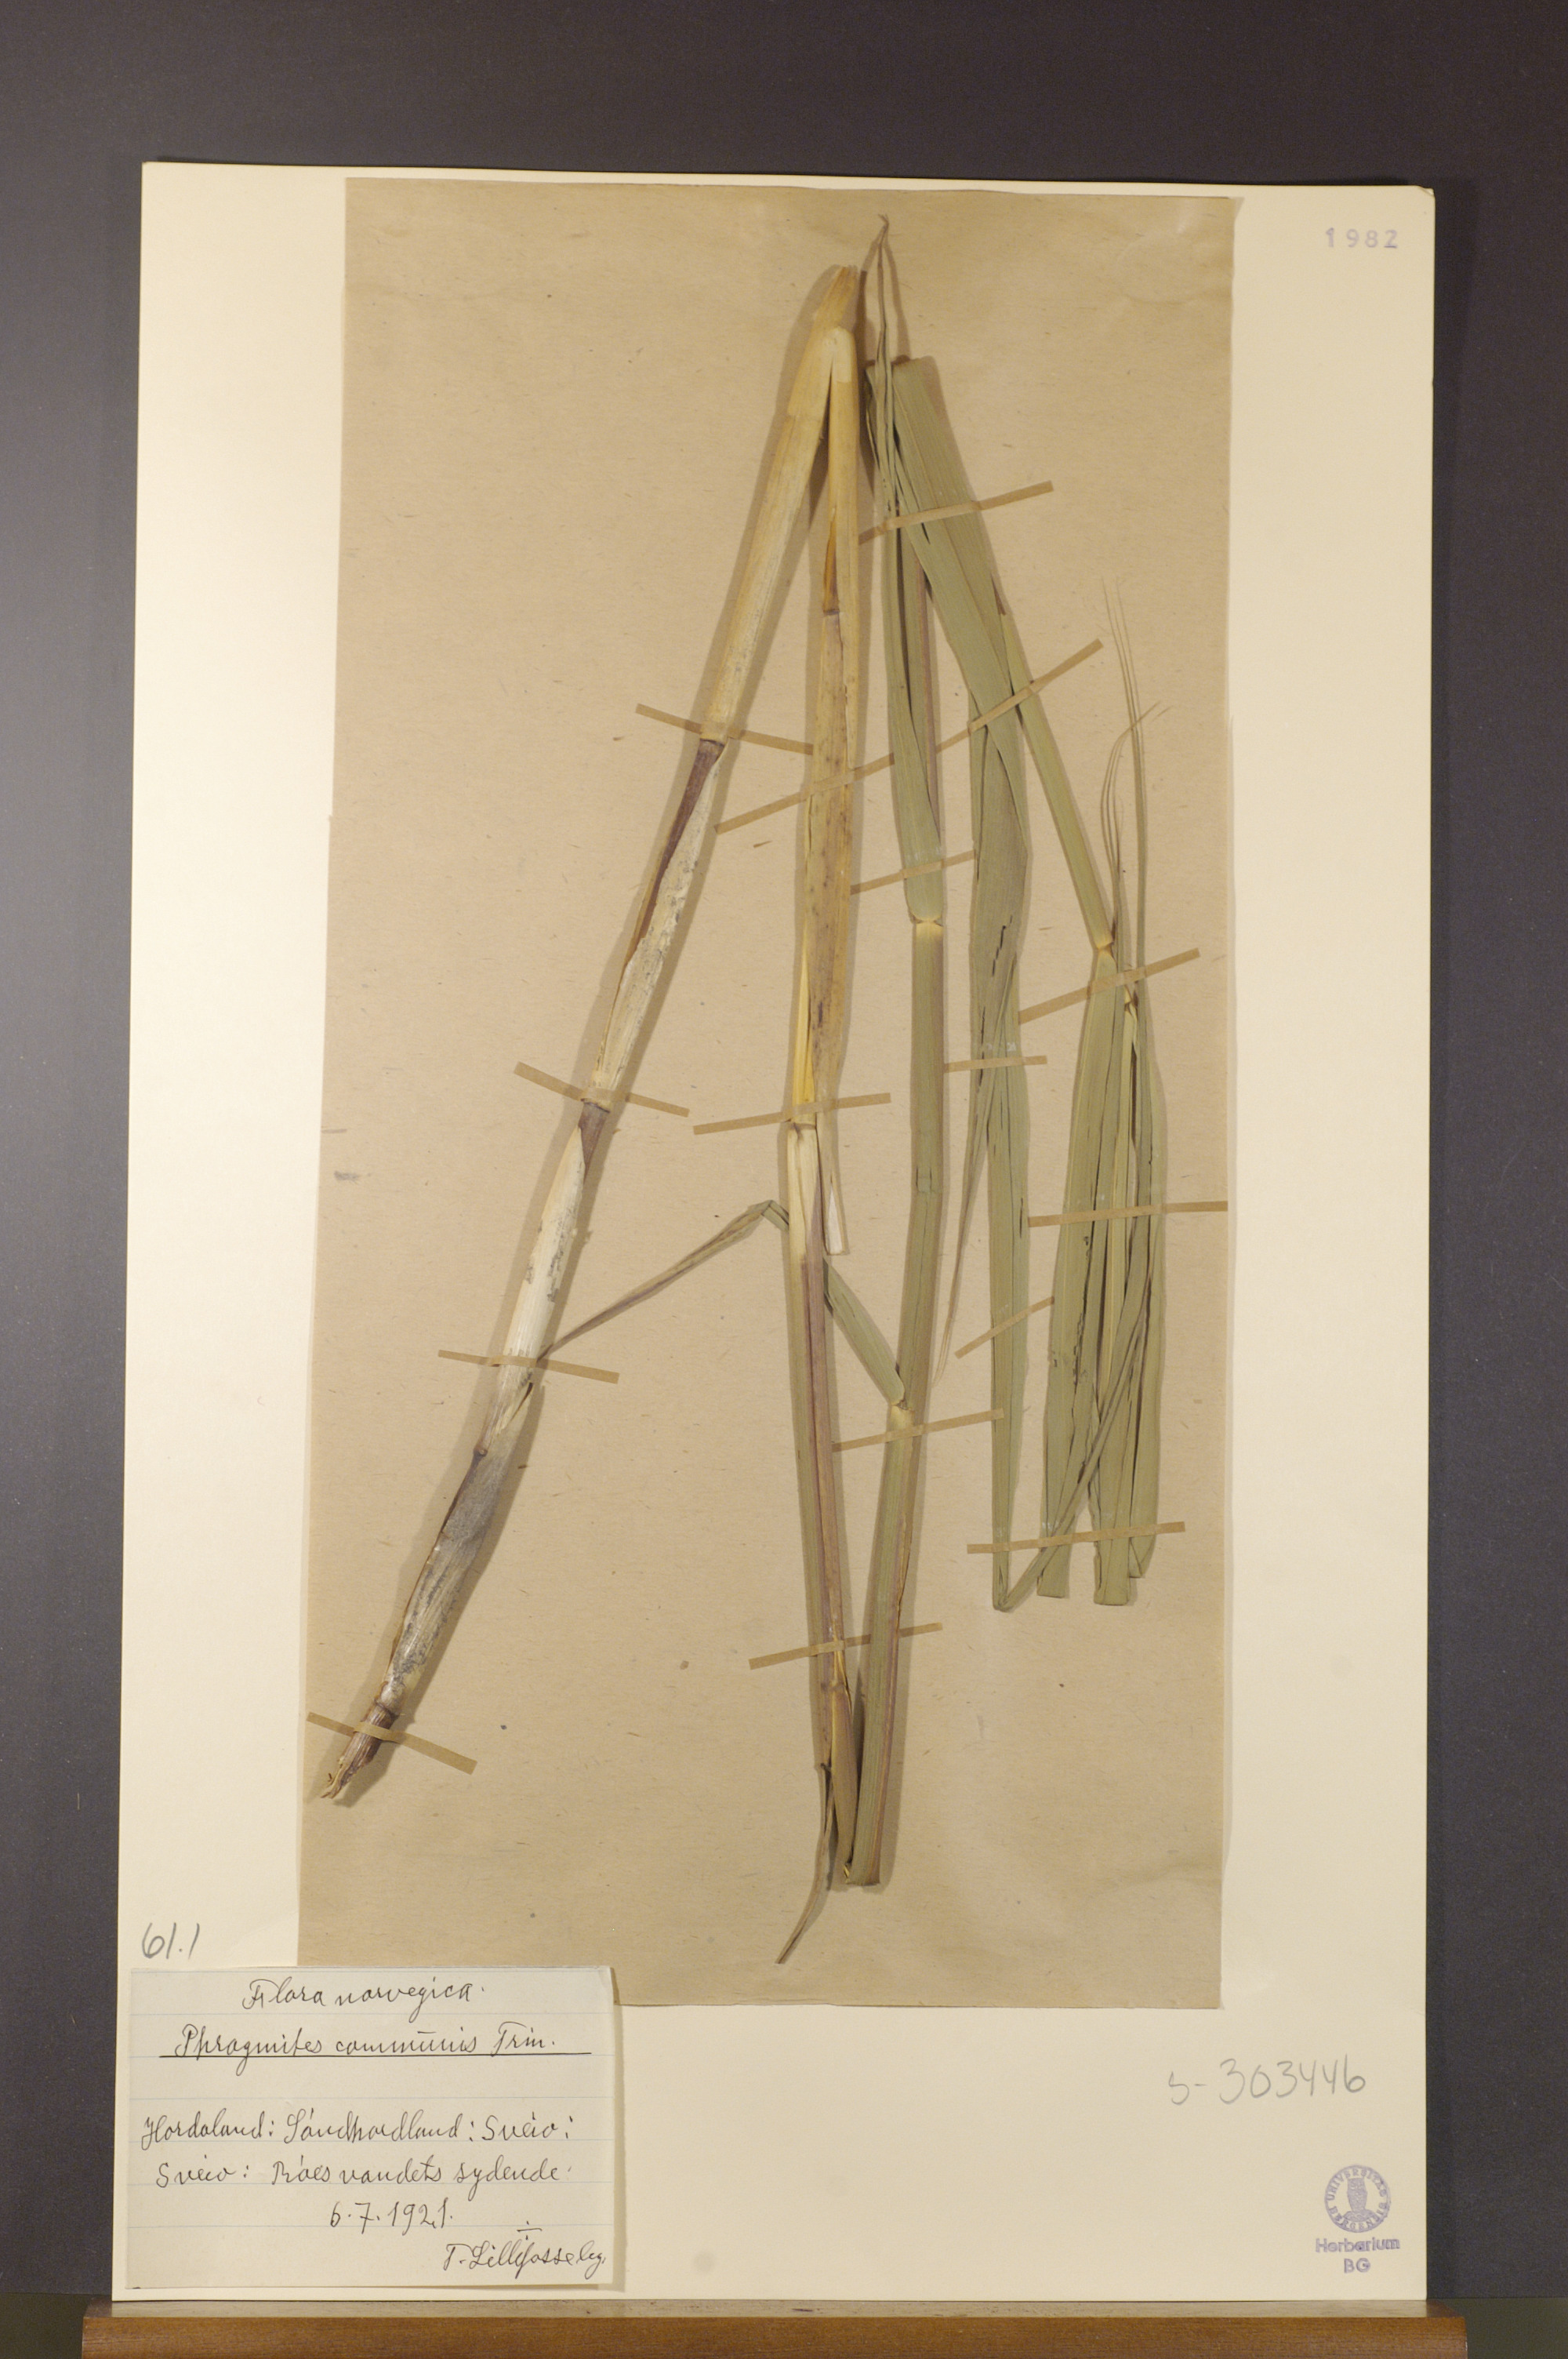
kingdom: Plantae
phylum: Tracheophyta
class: Liliopsida
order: Poales
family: Poaceae
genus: Phragmites
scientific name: Phragmites australis
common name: Common reed
